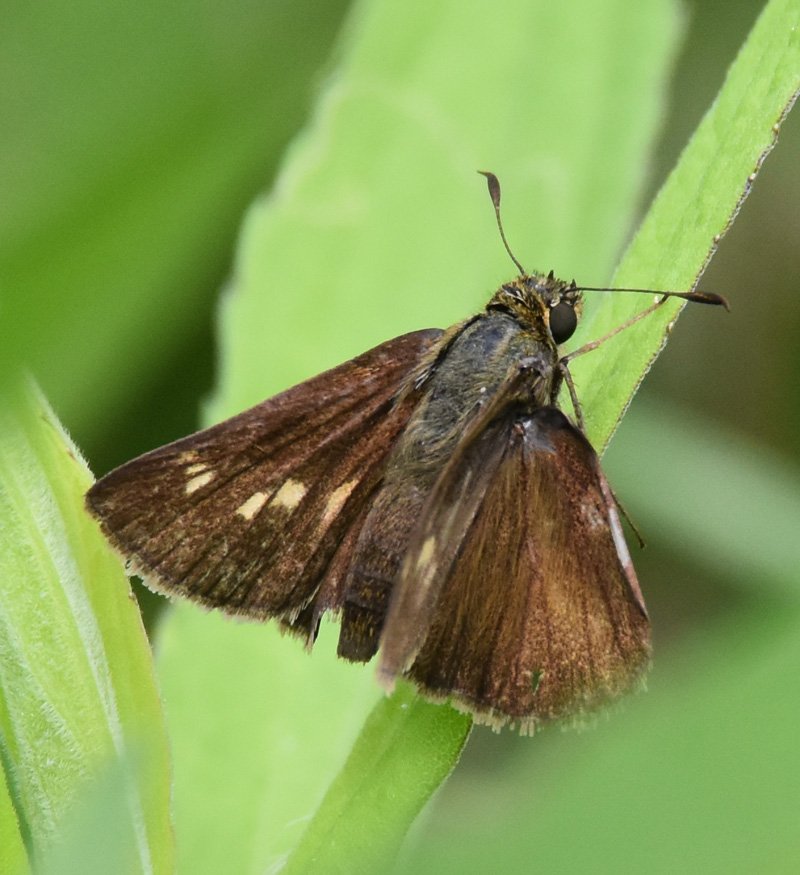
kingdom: Animalia
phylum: Arthropoda
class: Insecta
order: Lepidoptera
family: Hesperiidae
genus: Polites
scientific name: Polites egeremet
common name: Northern Broken-Dash
